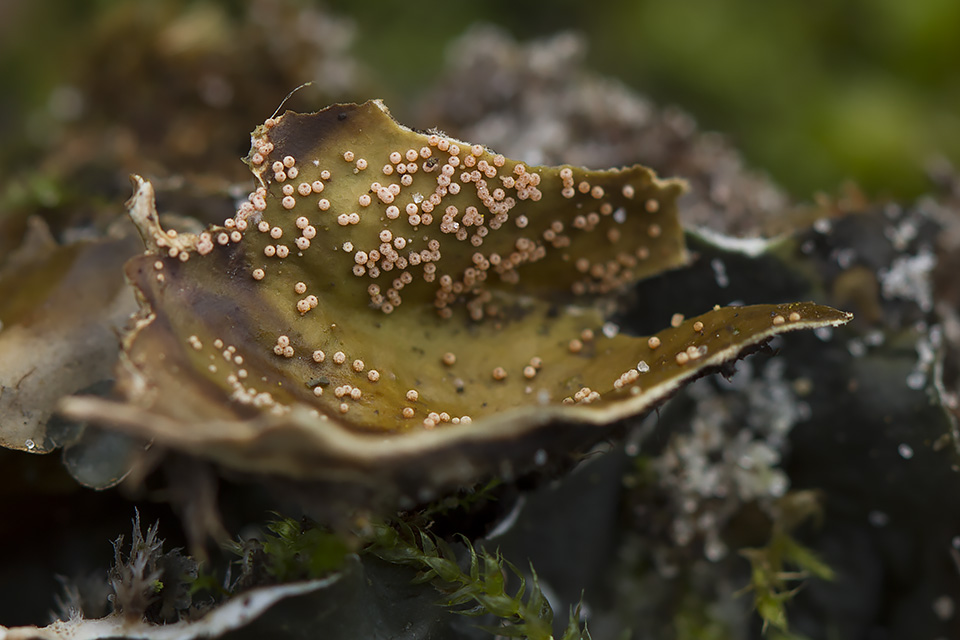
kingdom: Fungi
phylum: Ascomycota
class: Sordariomycetes
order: Hypocreales
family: Bionectriaceae
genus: Nectriopsis
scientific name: Nectriopsis lecanodes
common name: skjoldlav-gyldenkerne
